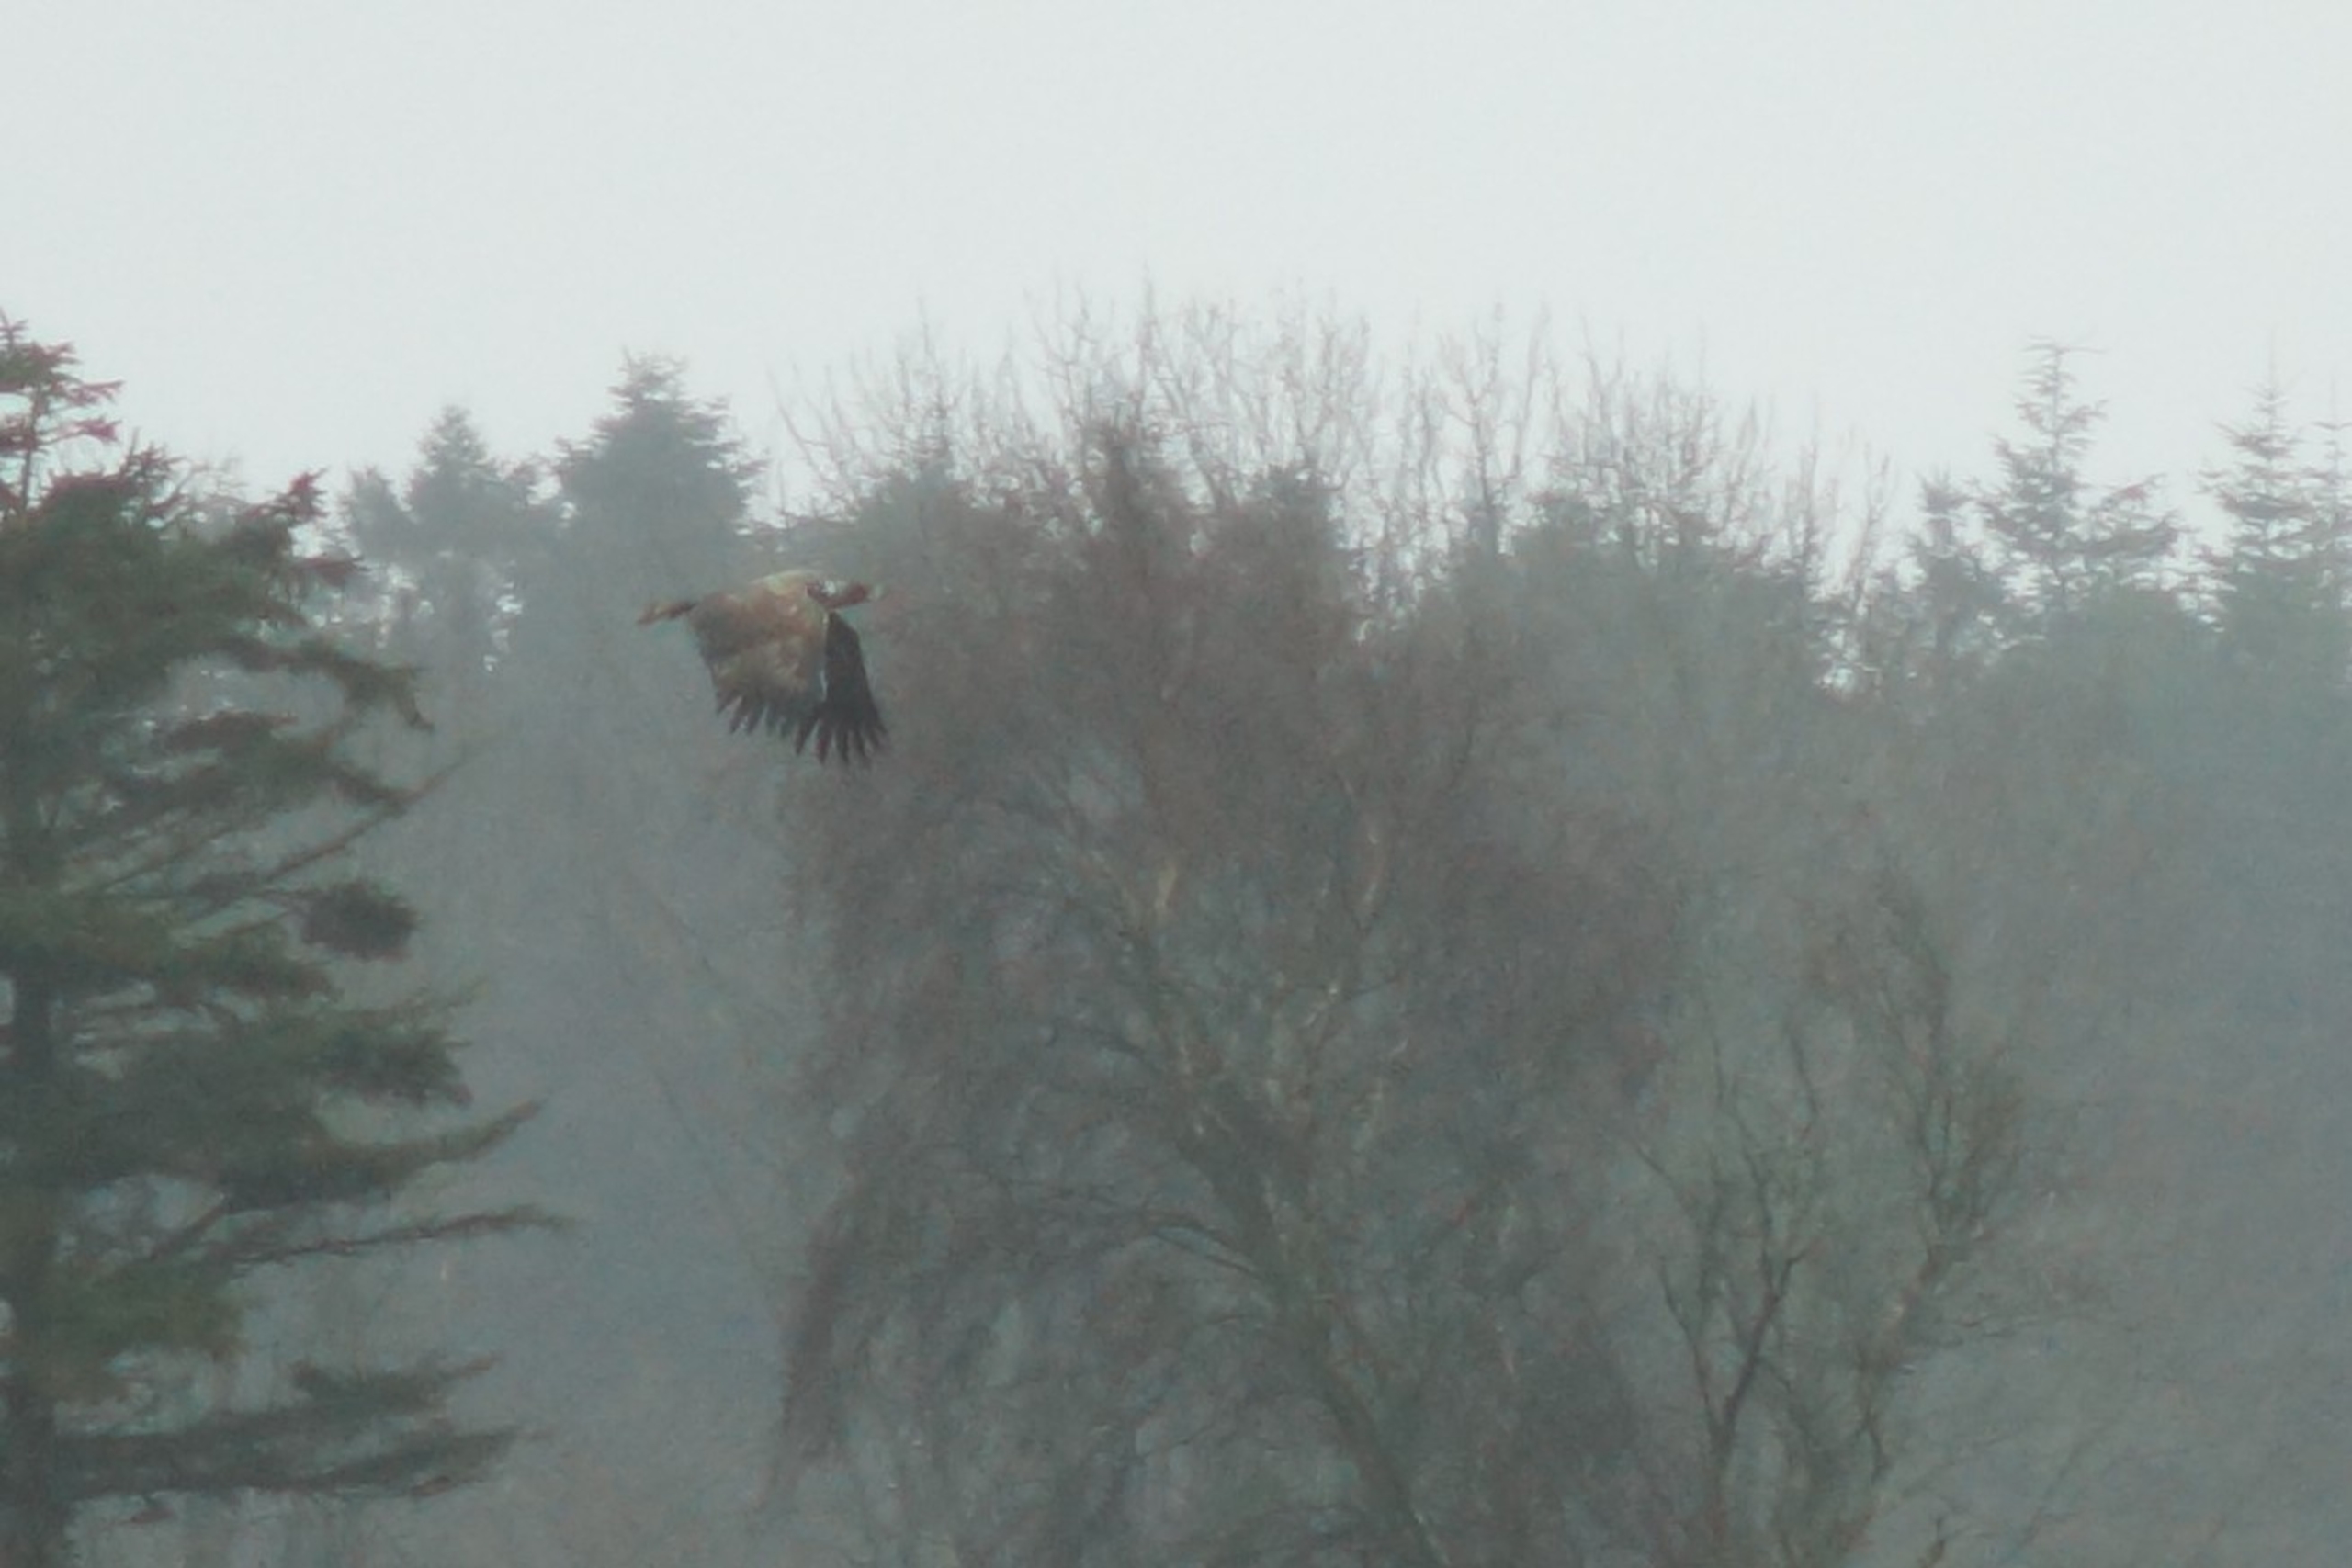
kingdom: Animalia
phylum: Chordata
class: Aves
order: Accipitriformes
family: Accipitridae
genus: Haliaeetus
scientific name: Haliaeetus albicilla
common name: Havørn
